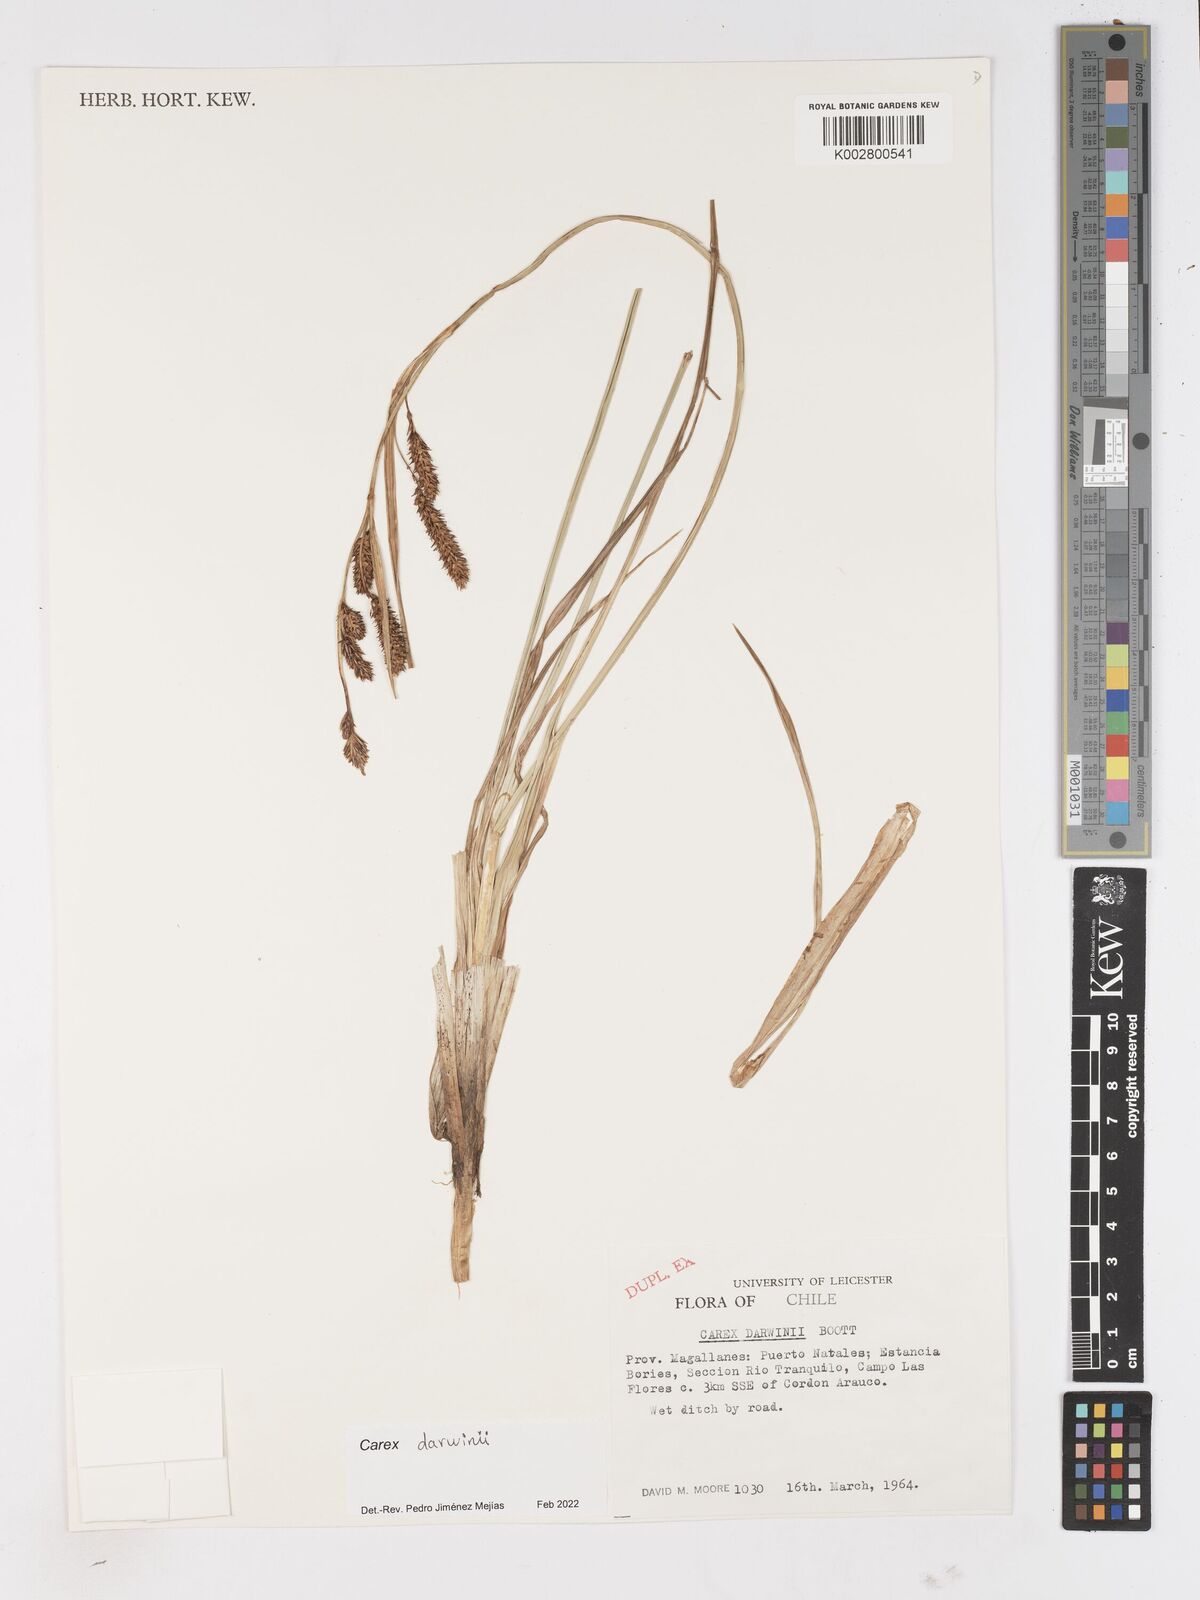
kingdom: Plantae
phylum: Tracheophyta
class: Liliopsida
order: Poales
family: Cyperaceae
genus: Carex
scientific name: Carex darwinii
